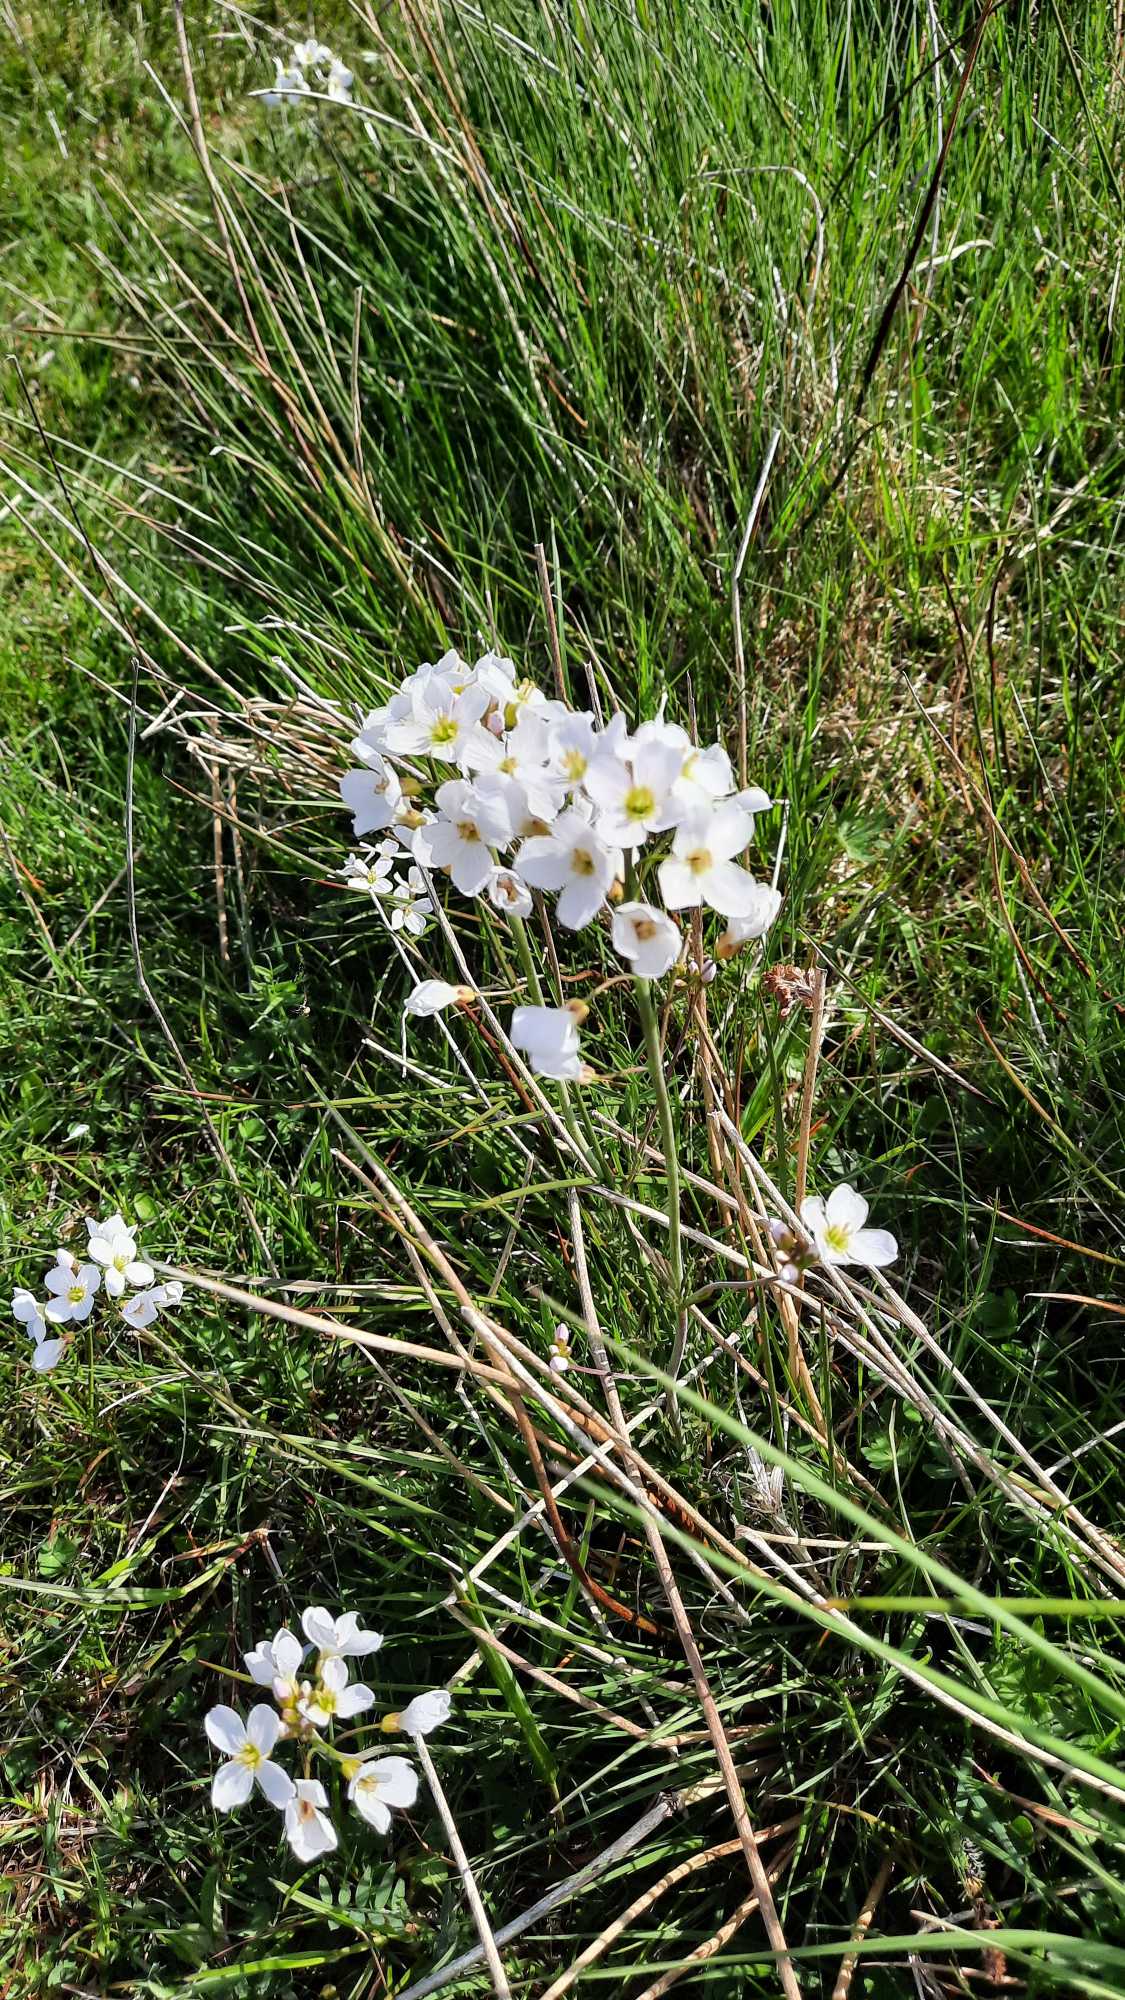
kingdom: Plantae
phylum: Tracheophyta
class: Magnoliopsida
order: Brassicales
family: Brassicaceae
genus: Cardamine
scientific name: Cardamine pratensis
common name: Engkarse
